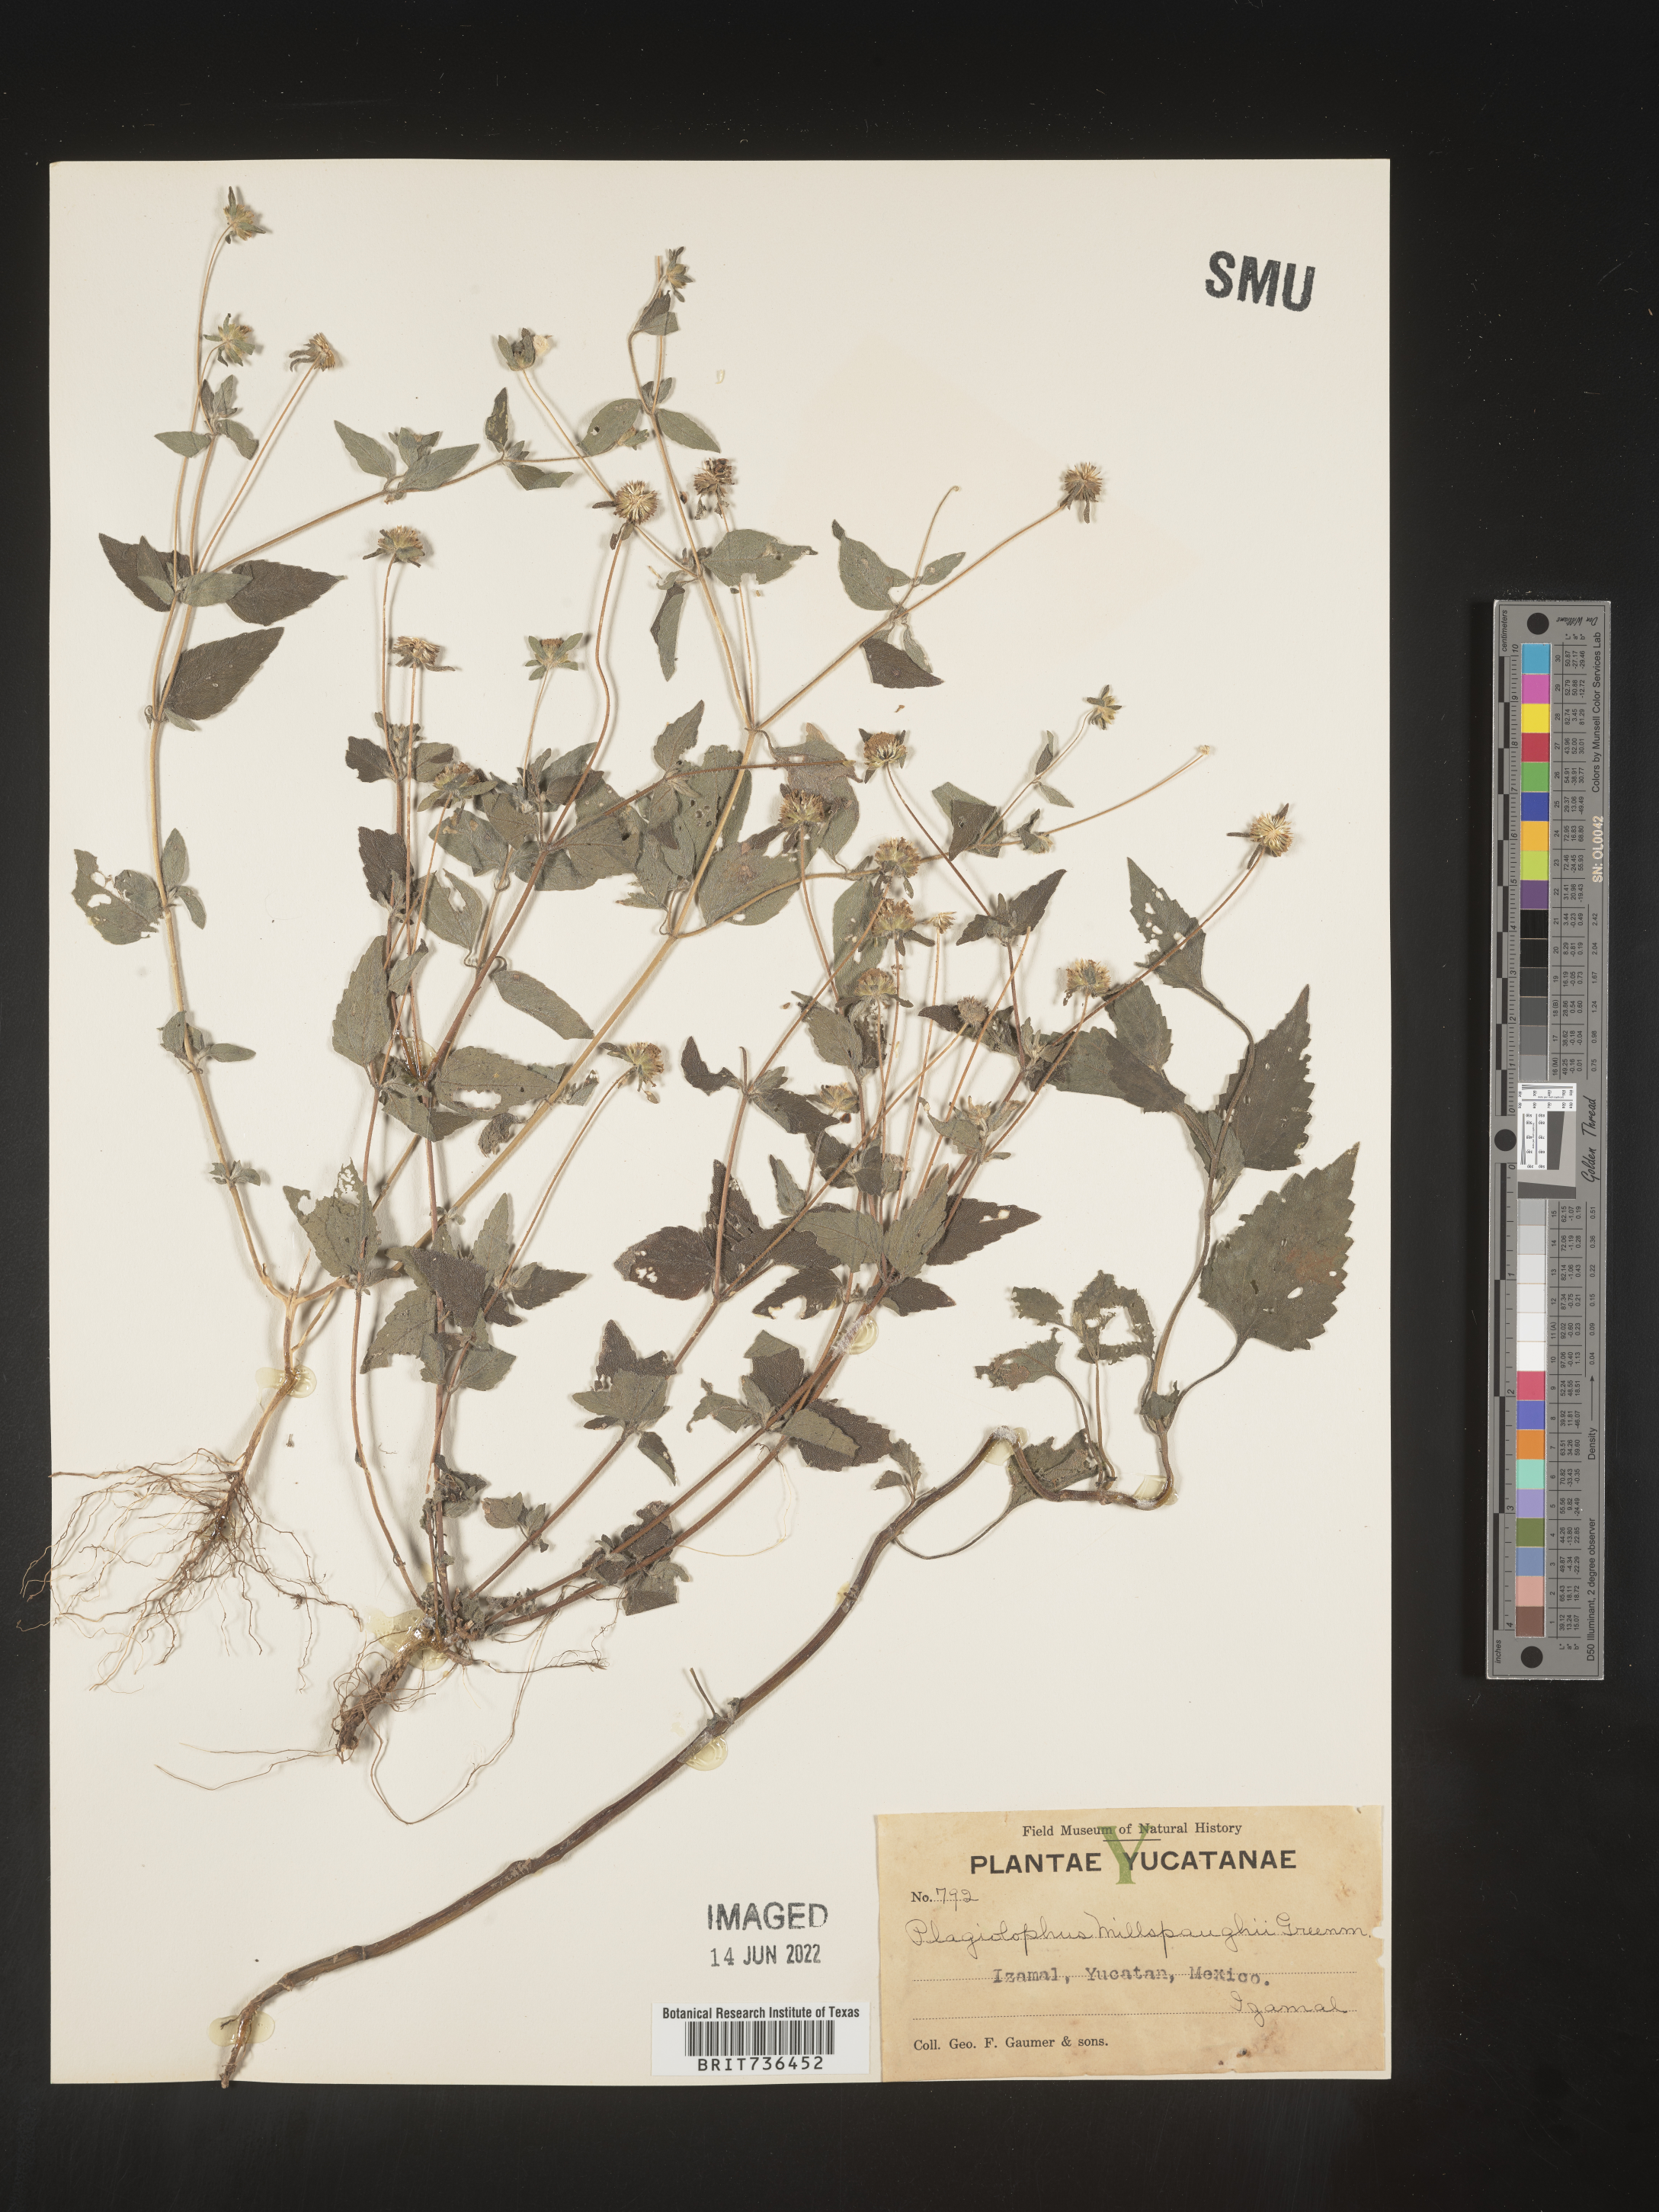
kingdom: Plantae
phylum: Tracheophyta
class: Magnoliopsida
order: Asterales
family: Asteraceae
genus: Plagiolophus
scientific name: Plagiolophus
